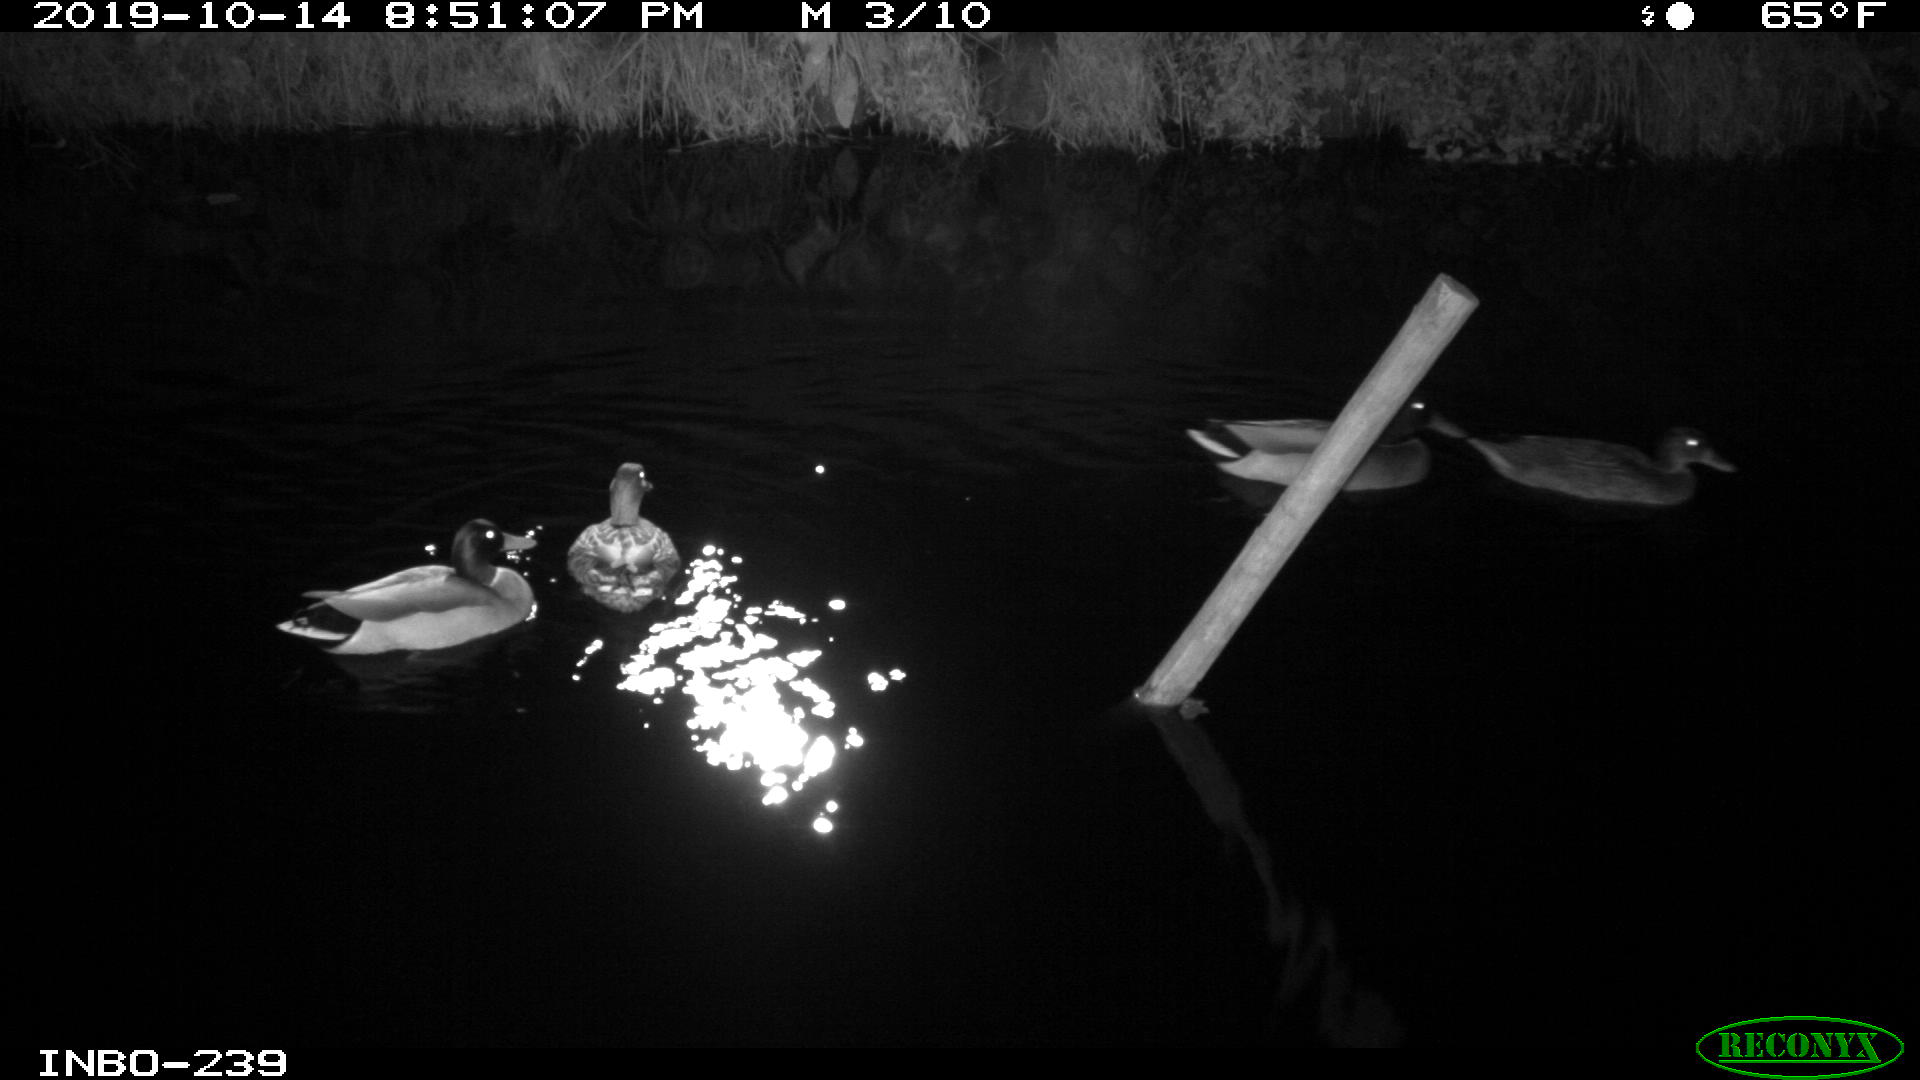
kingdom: Animalia
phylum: Chordata
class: Aves
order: Anseriformes
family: Anatidae
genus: Anas
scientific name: Anas platyrhynchos
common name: Mallard
